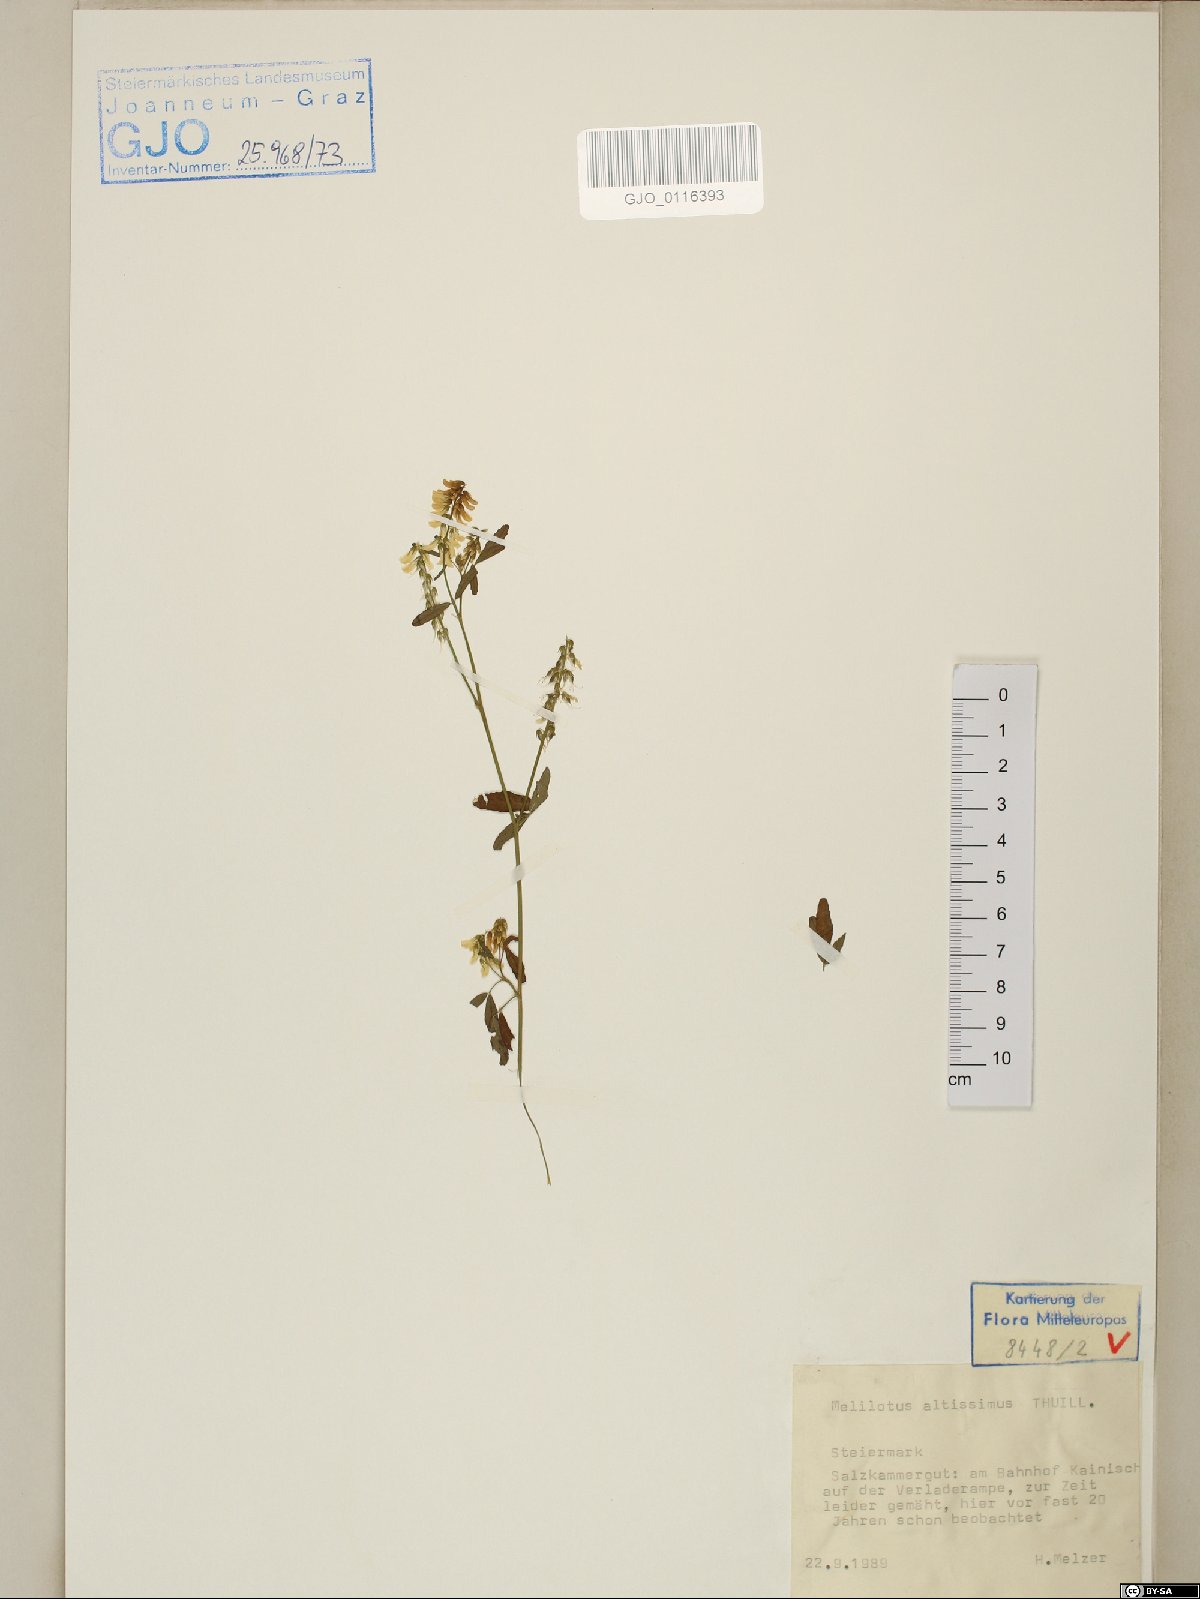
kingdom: Plantae
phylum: Tracheophyta
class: Magnoliopsida
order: Fabales
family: Fabaceae
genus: Melilotus
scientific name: Melilotus altissimus
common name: Tall melilot
